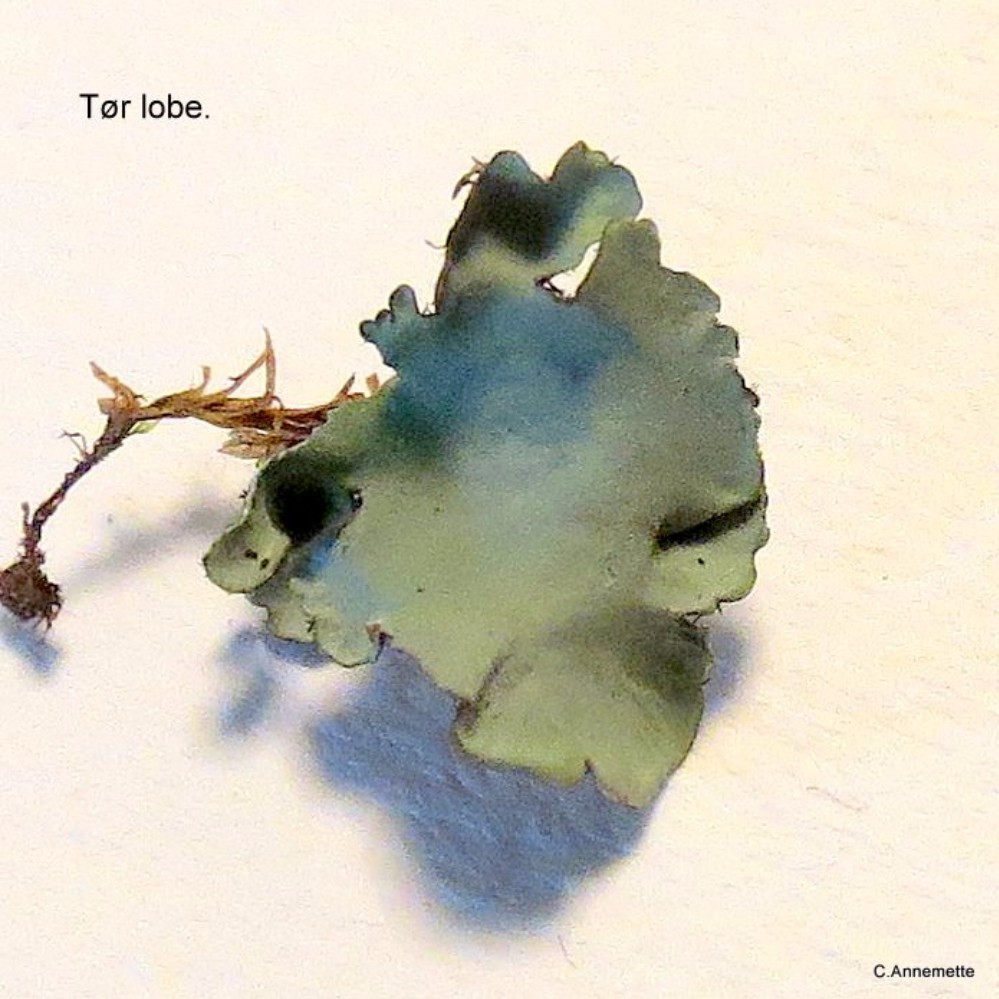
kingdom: Fungi
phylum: Ascomycota
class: Lecanoromycetes
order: Lecanorales
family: Parmeliaceae
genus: Parmotrema
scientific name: Parmotrema perlatum
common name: trådet skållav
